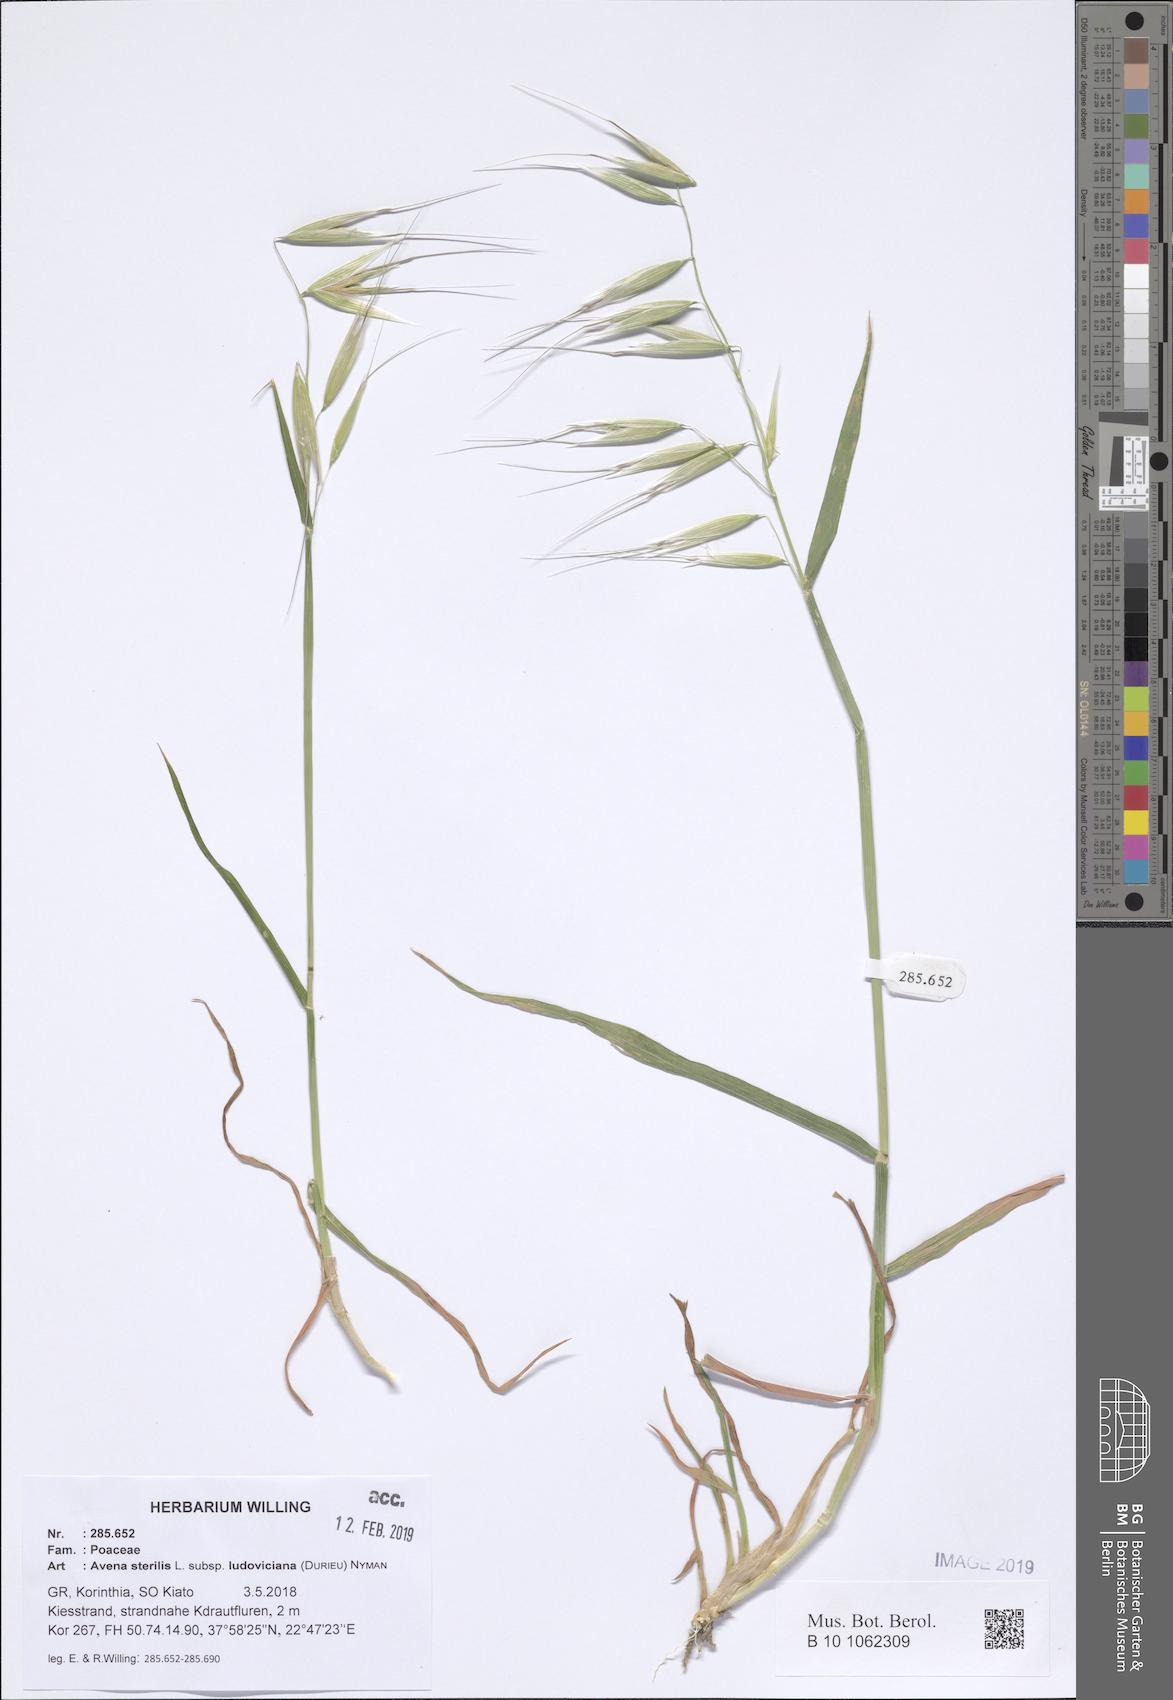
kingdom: Plantae
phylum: Tracheophyta
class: Liliopsida
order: Poales
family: Poaceae
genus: Avena
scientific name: Avena sterilis
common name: Animated oat
